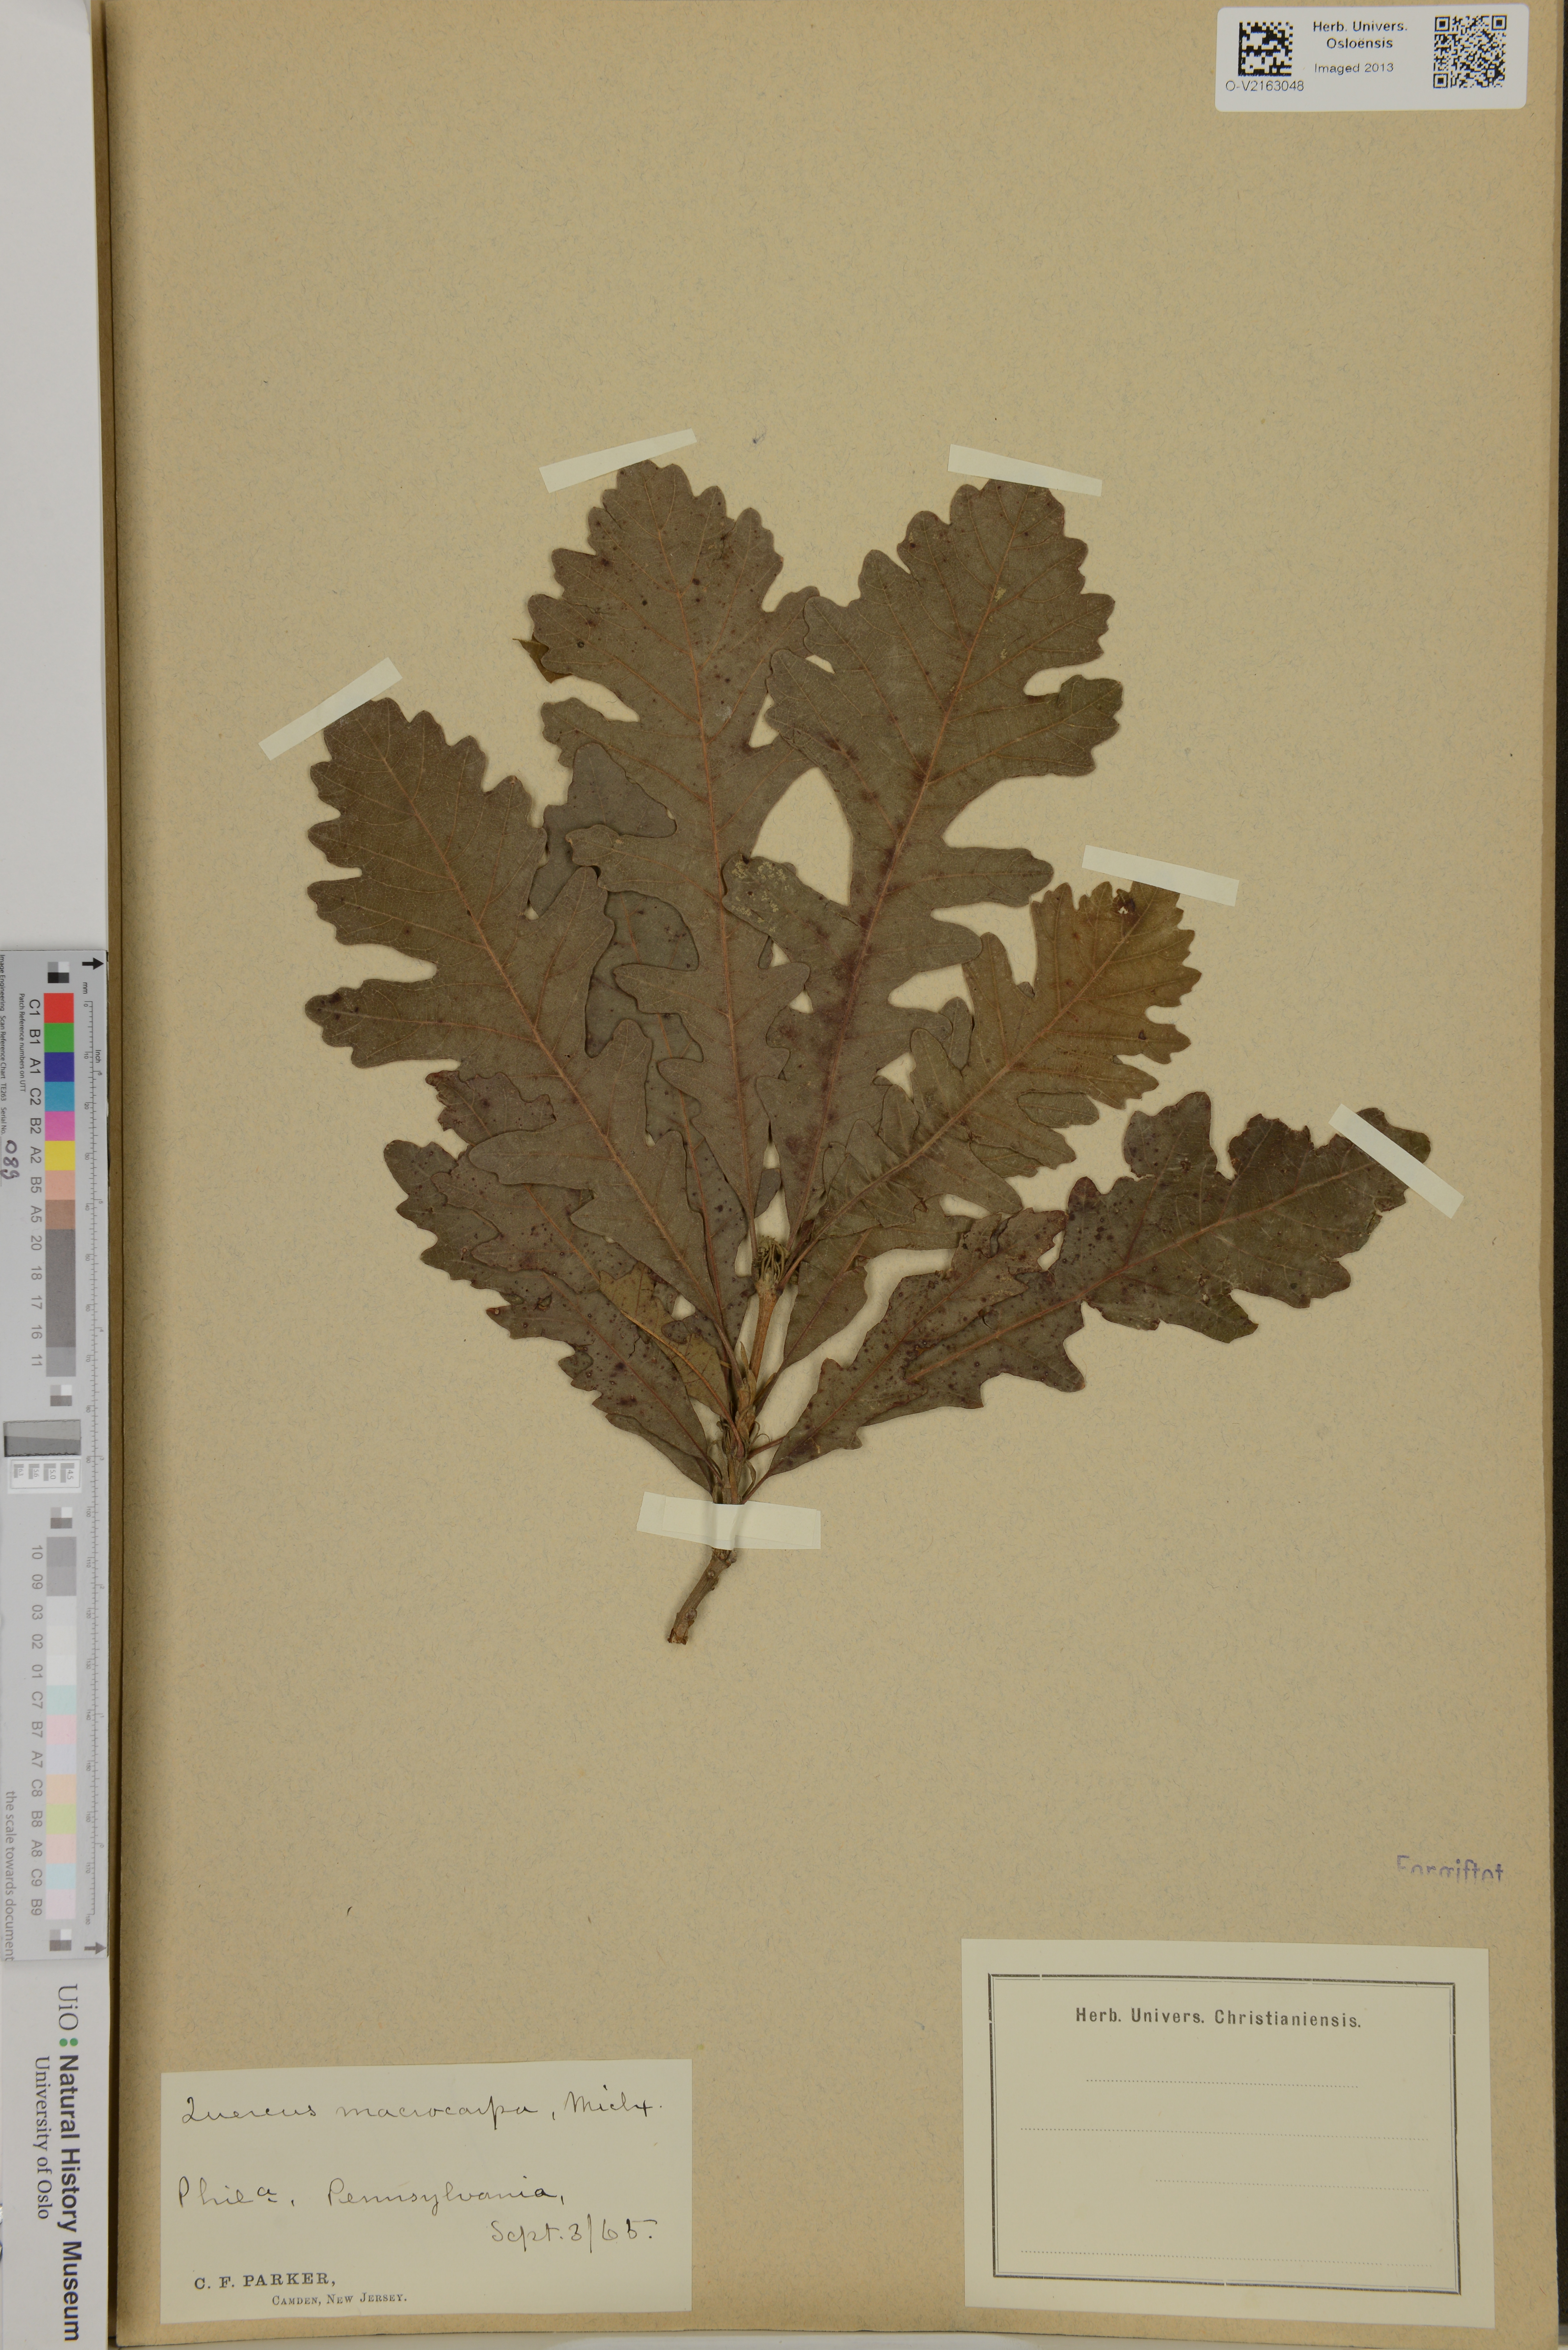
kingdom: Plantae
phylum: Tracheophyta
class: Magnoliopsida
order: Fagales
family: Fagaceae
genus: Quercus
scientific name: Quercus macrocarpa
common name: Bur oak
